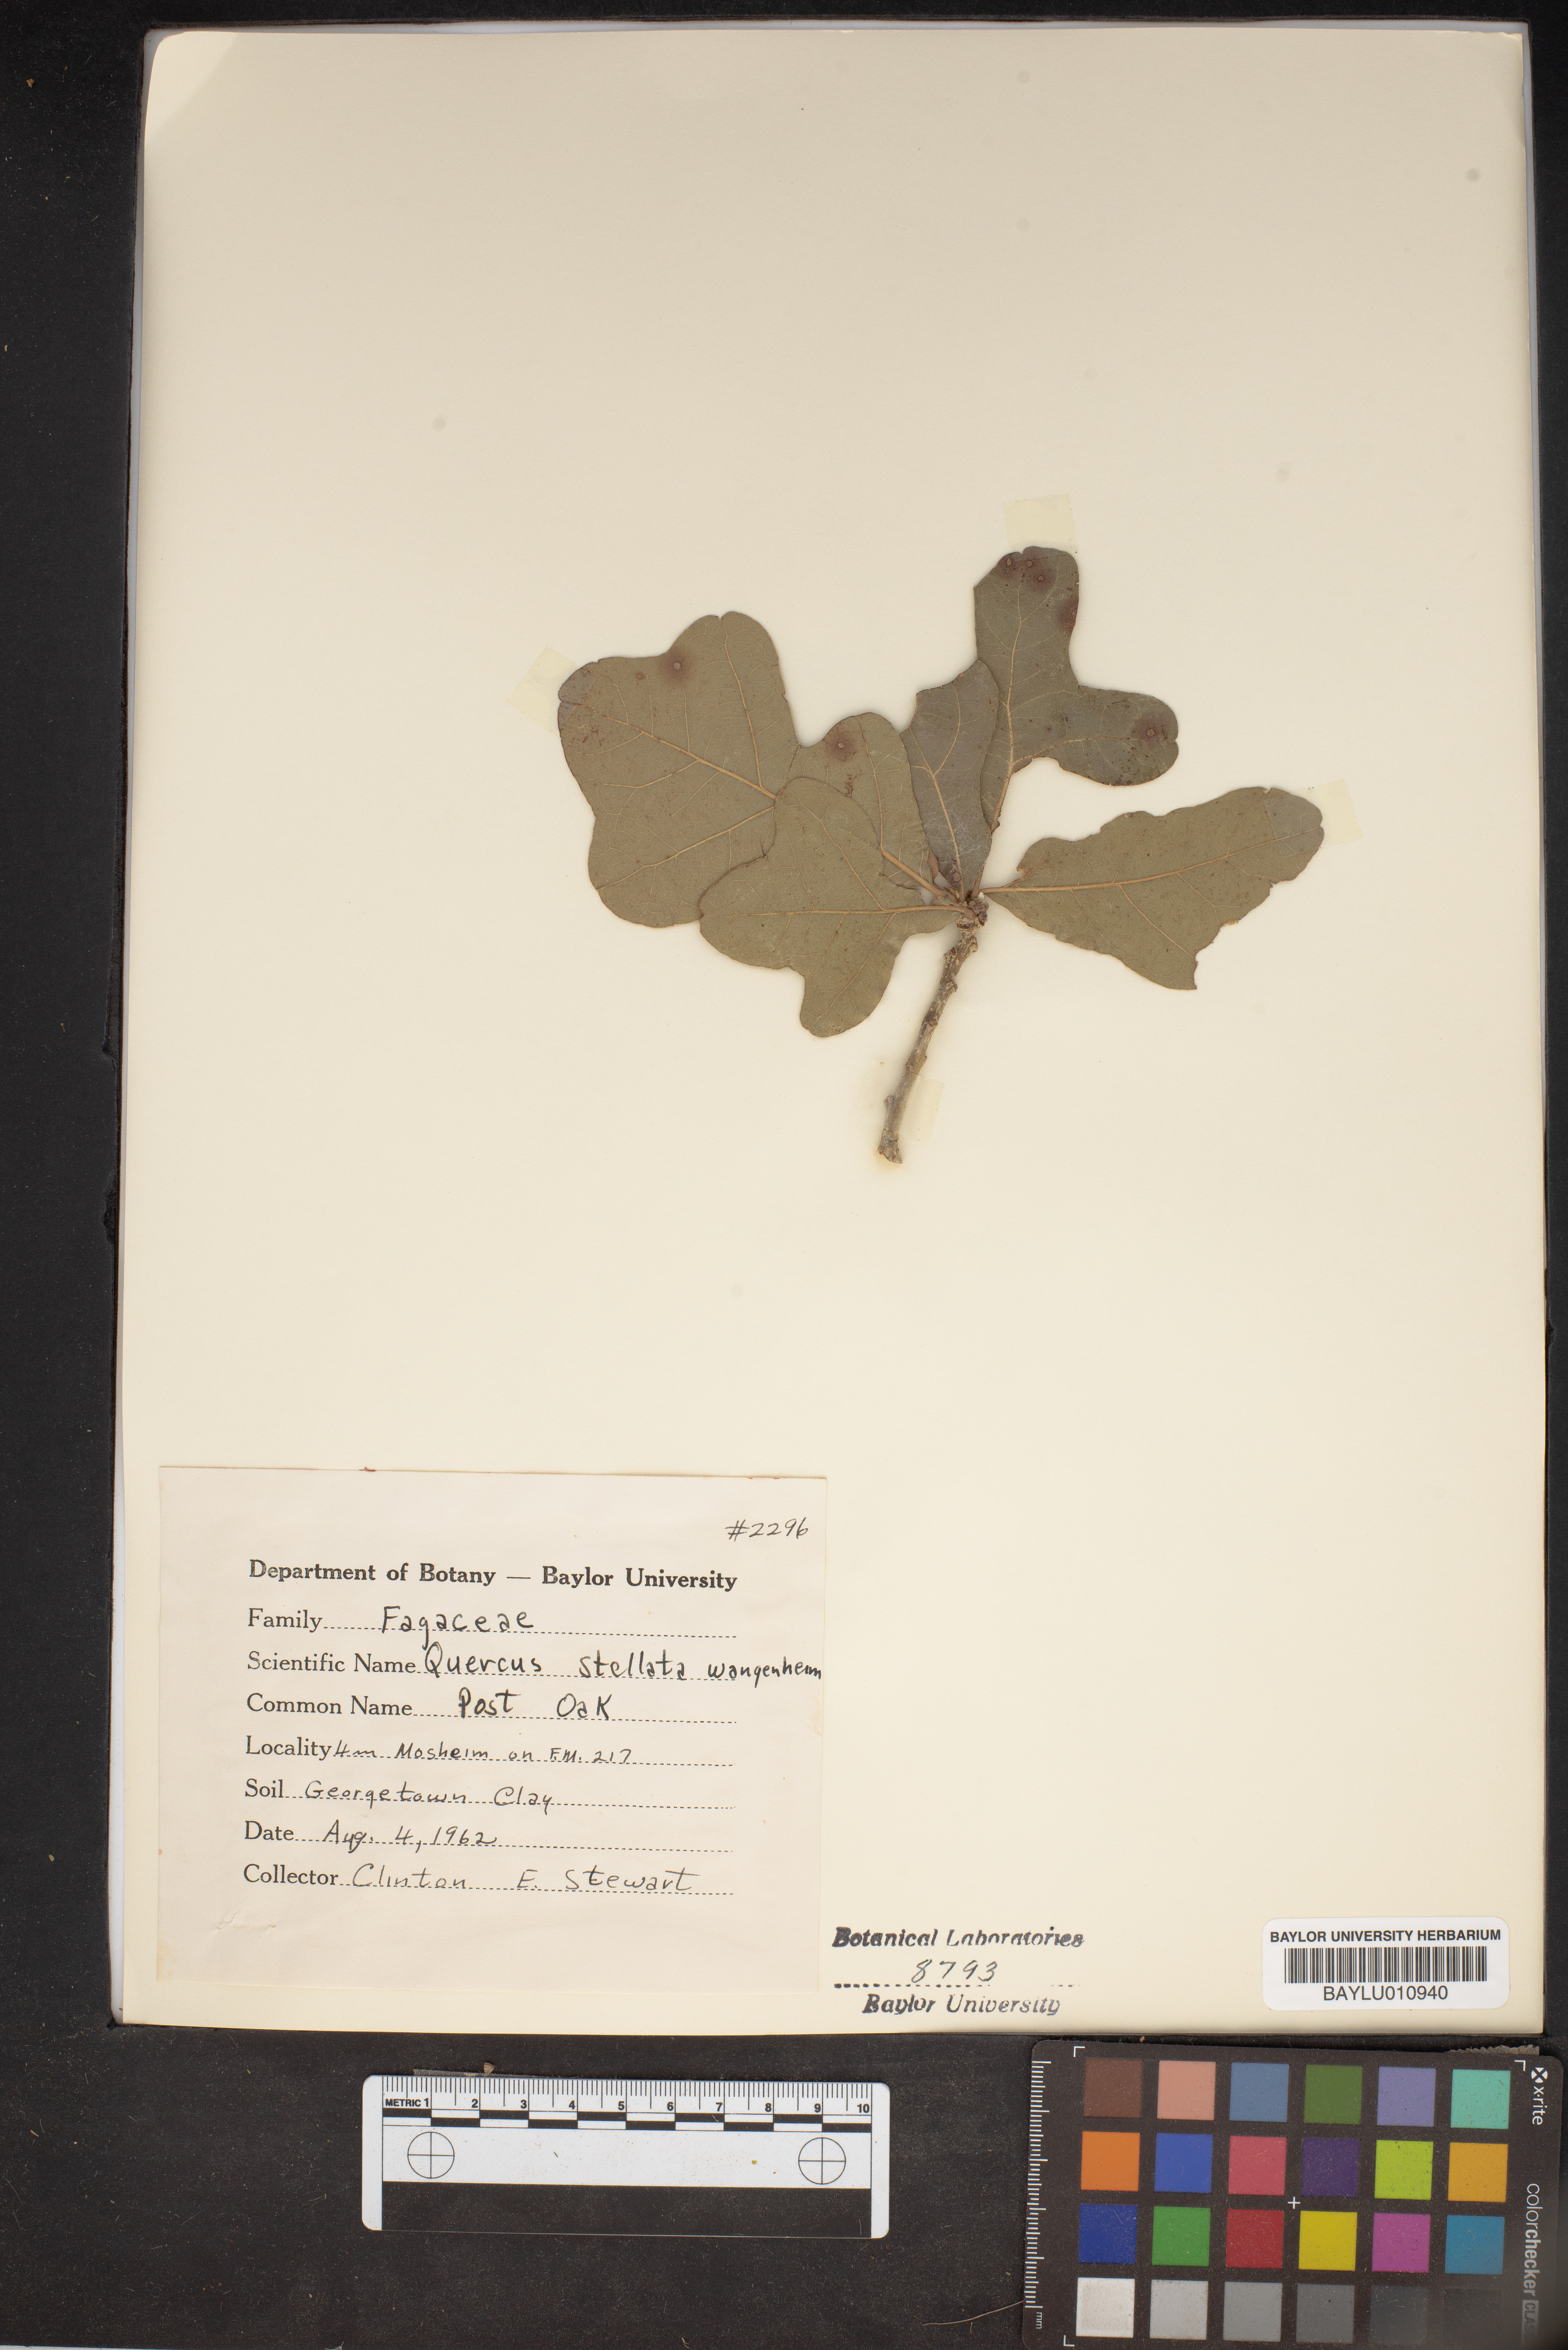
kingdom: Plantae
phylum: Tracheophyta
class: Magnoliopsida
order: Fagales
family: Fagaceae
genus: Quercus
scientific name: Quercus stellata
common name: Post oak
